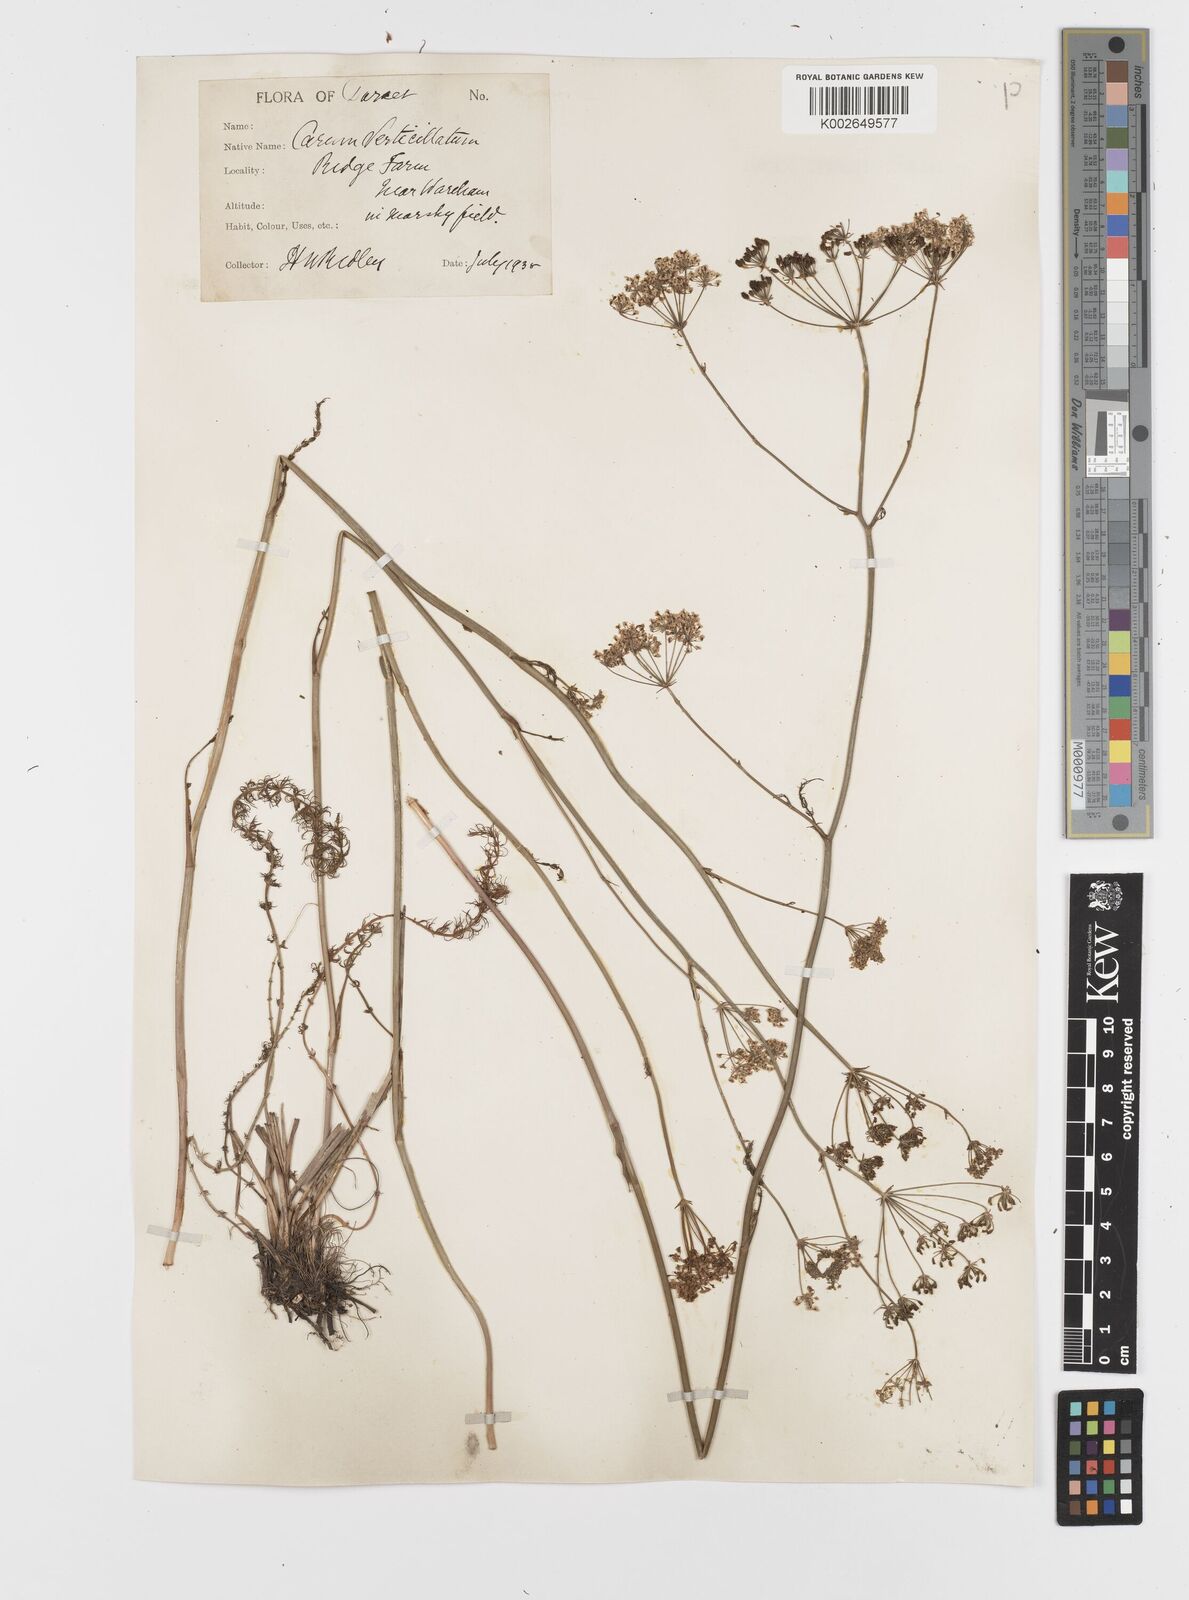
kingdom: Plantae
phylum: Tracheophyta
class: Magnoliopsida
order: Apiales
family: Apiaceae
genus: Trocdaris
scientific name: Trocdaris verticillatum
